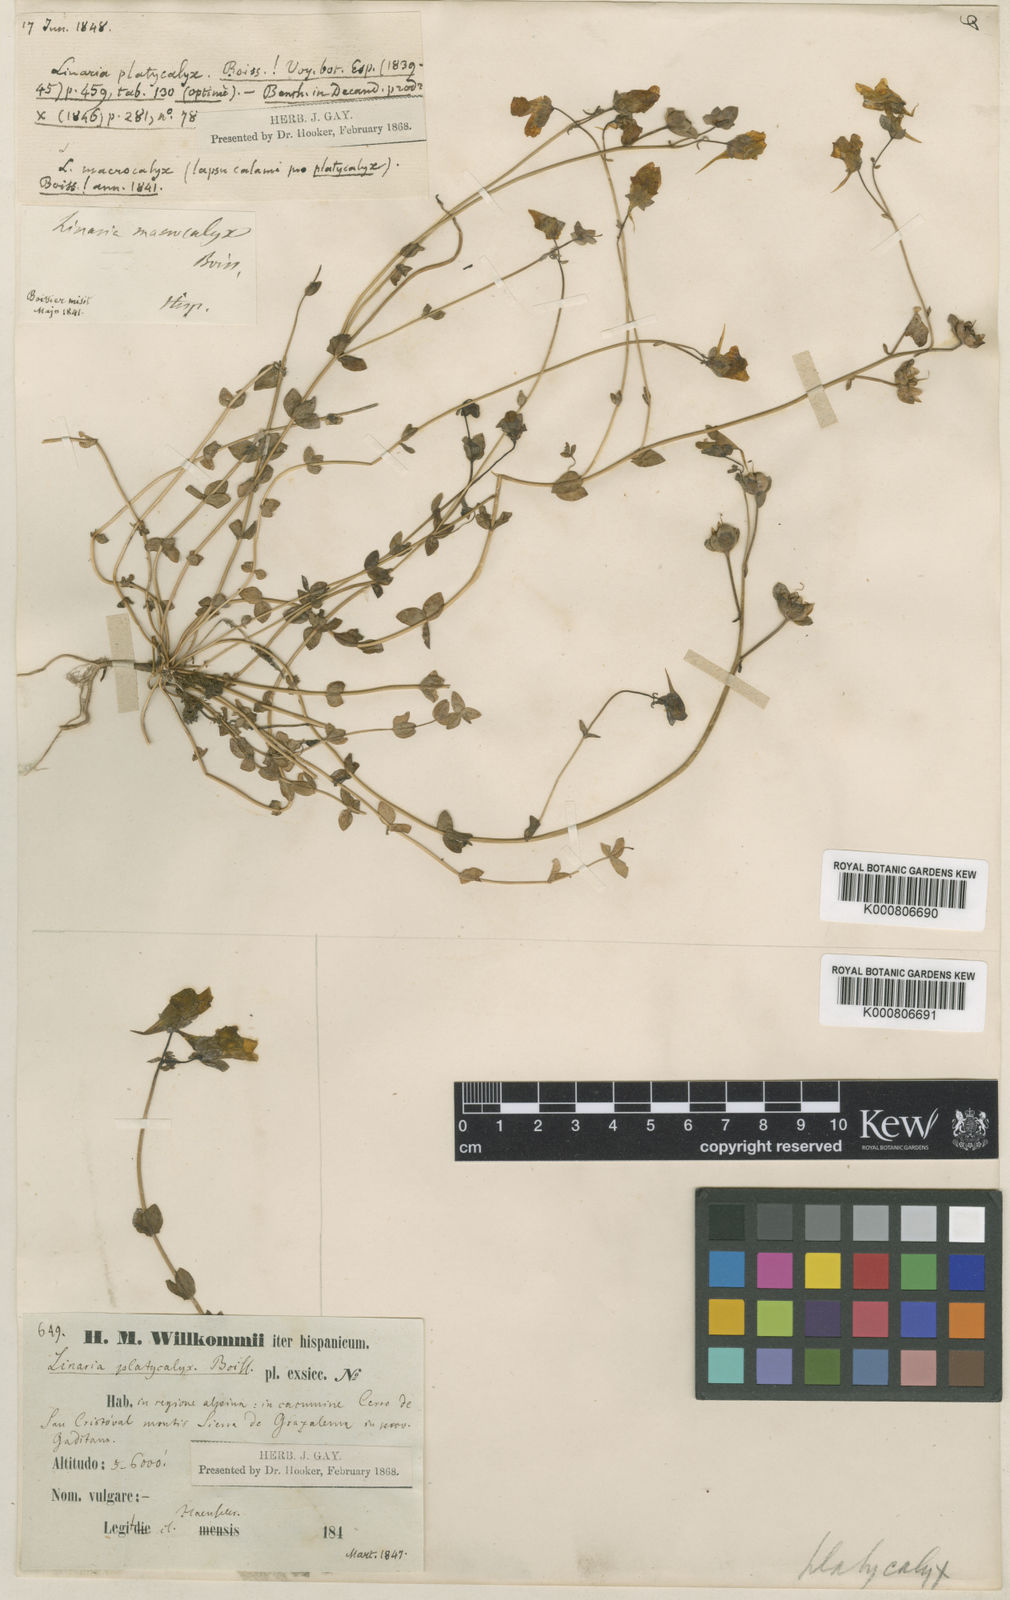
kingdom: Plantae
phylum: Tracheophyta
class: Magnoliopsida
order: Lamiales
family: Plantaginaceae
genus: Linaria
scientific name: Linaria platycalyx
